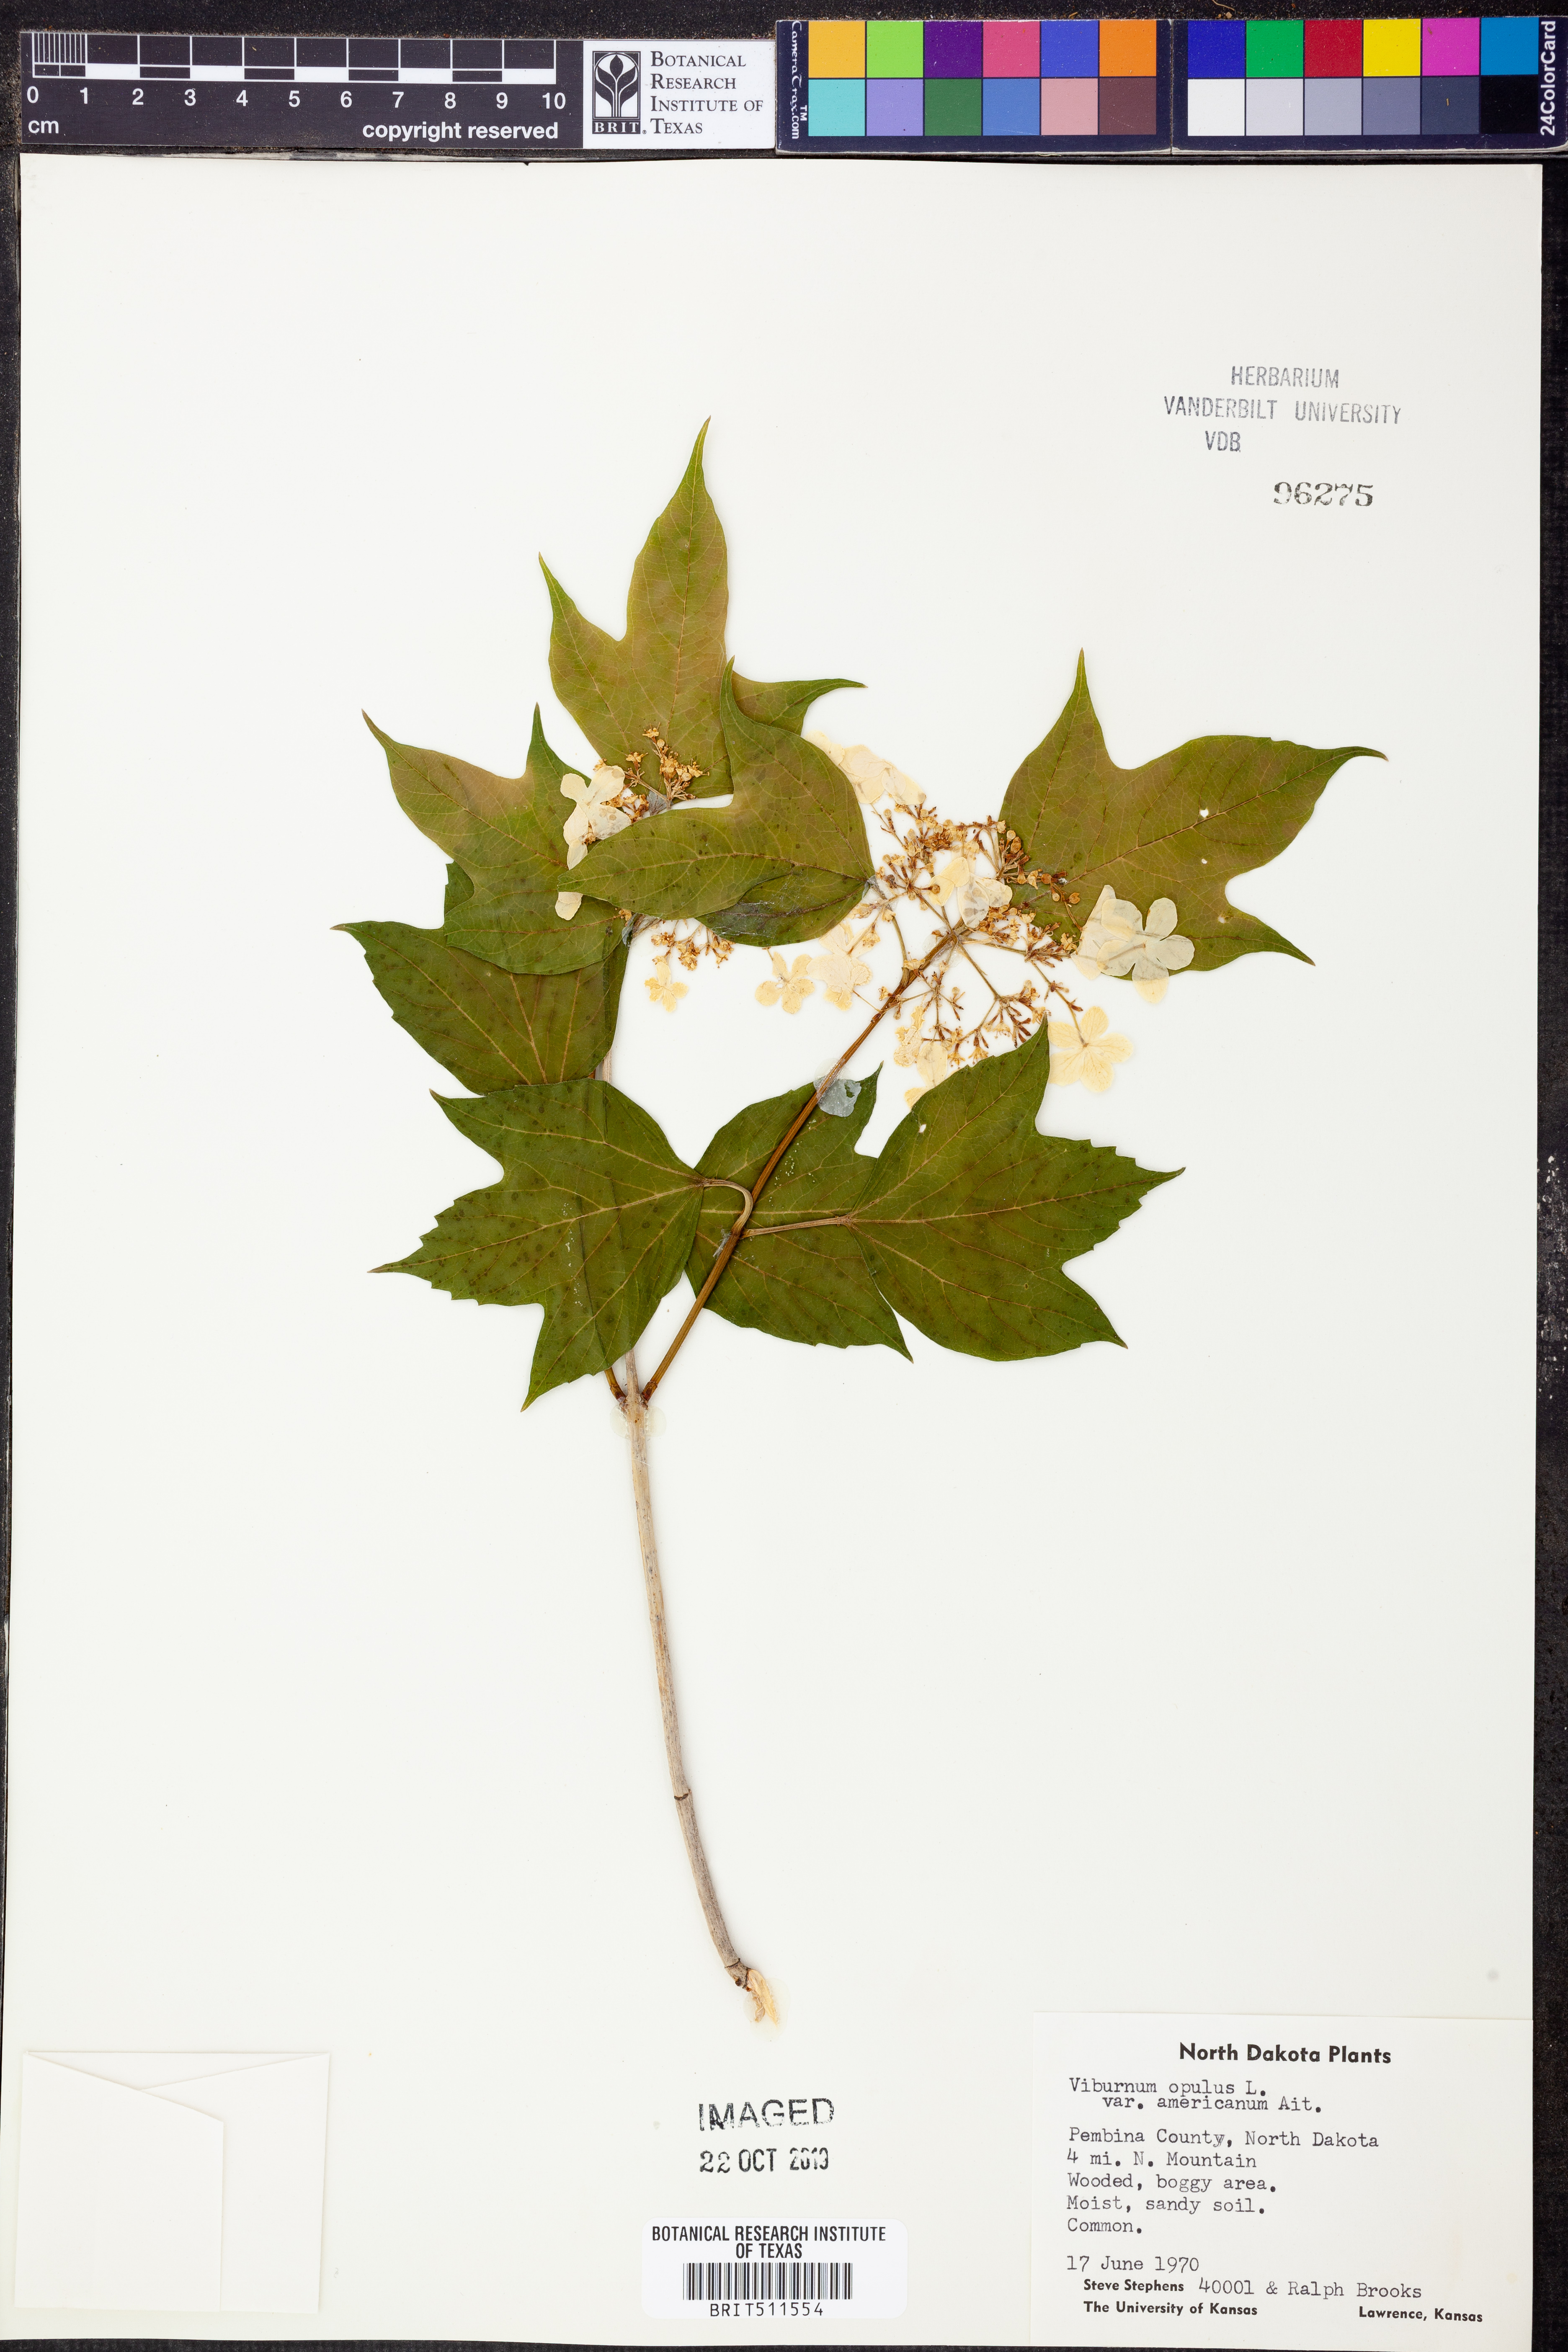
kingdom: Plantae
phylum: Tracheophyta
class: Magnoliopsida
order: Dipsacales
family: Viburnaceae
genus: Viburnum
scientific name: Viburnum trilobum
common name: American cranberrybush
